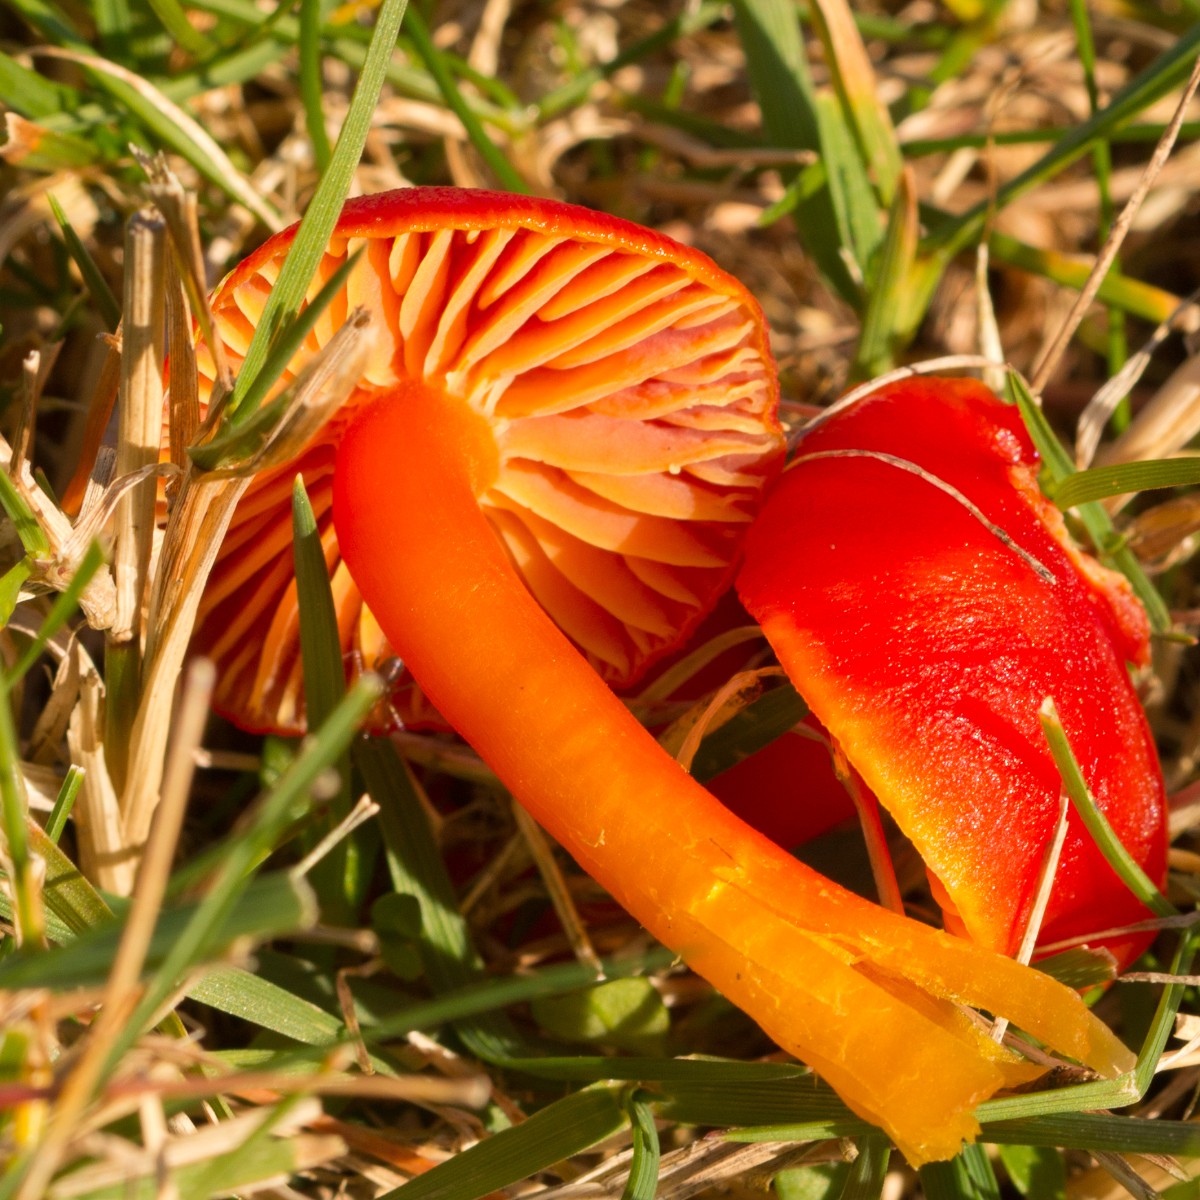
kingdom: Fungi
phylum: Basidiomycota
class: Agaricomycetes
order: Agaricales
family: Hygrophoraceae
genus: Hygrocybe
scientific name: Hygrocybe coccinea
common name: cinnober-vokshat
